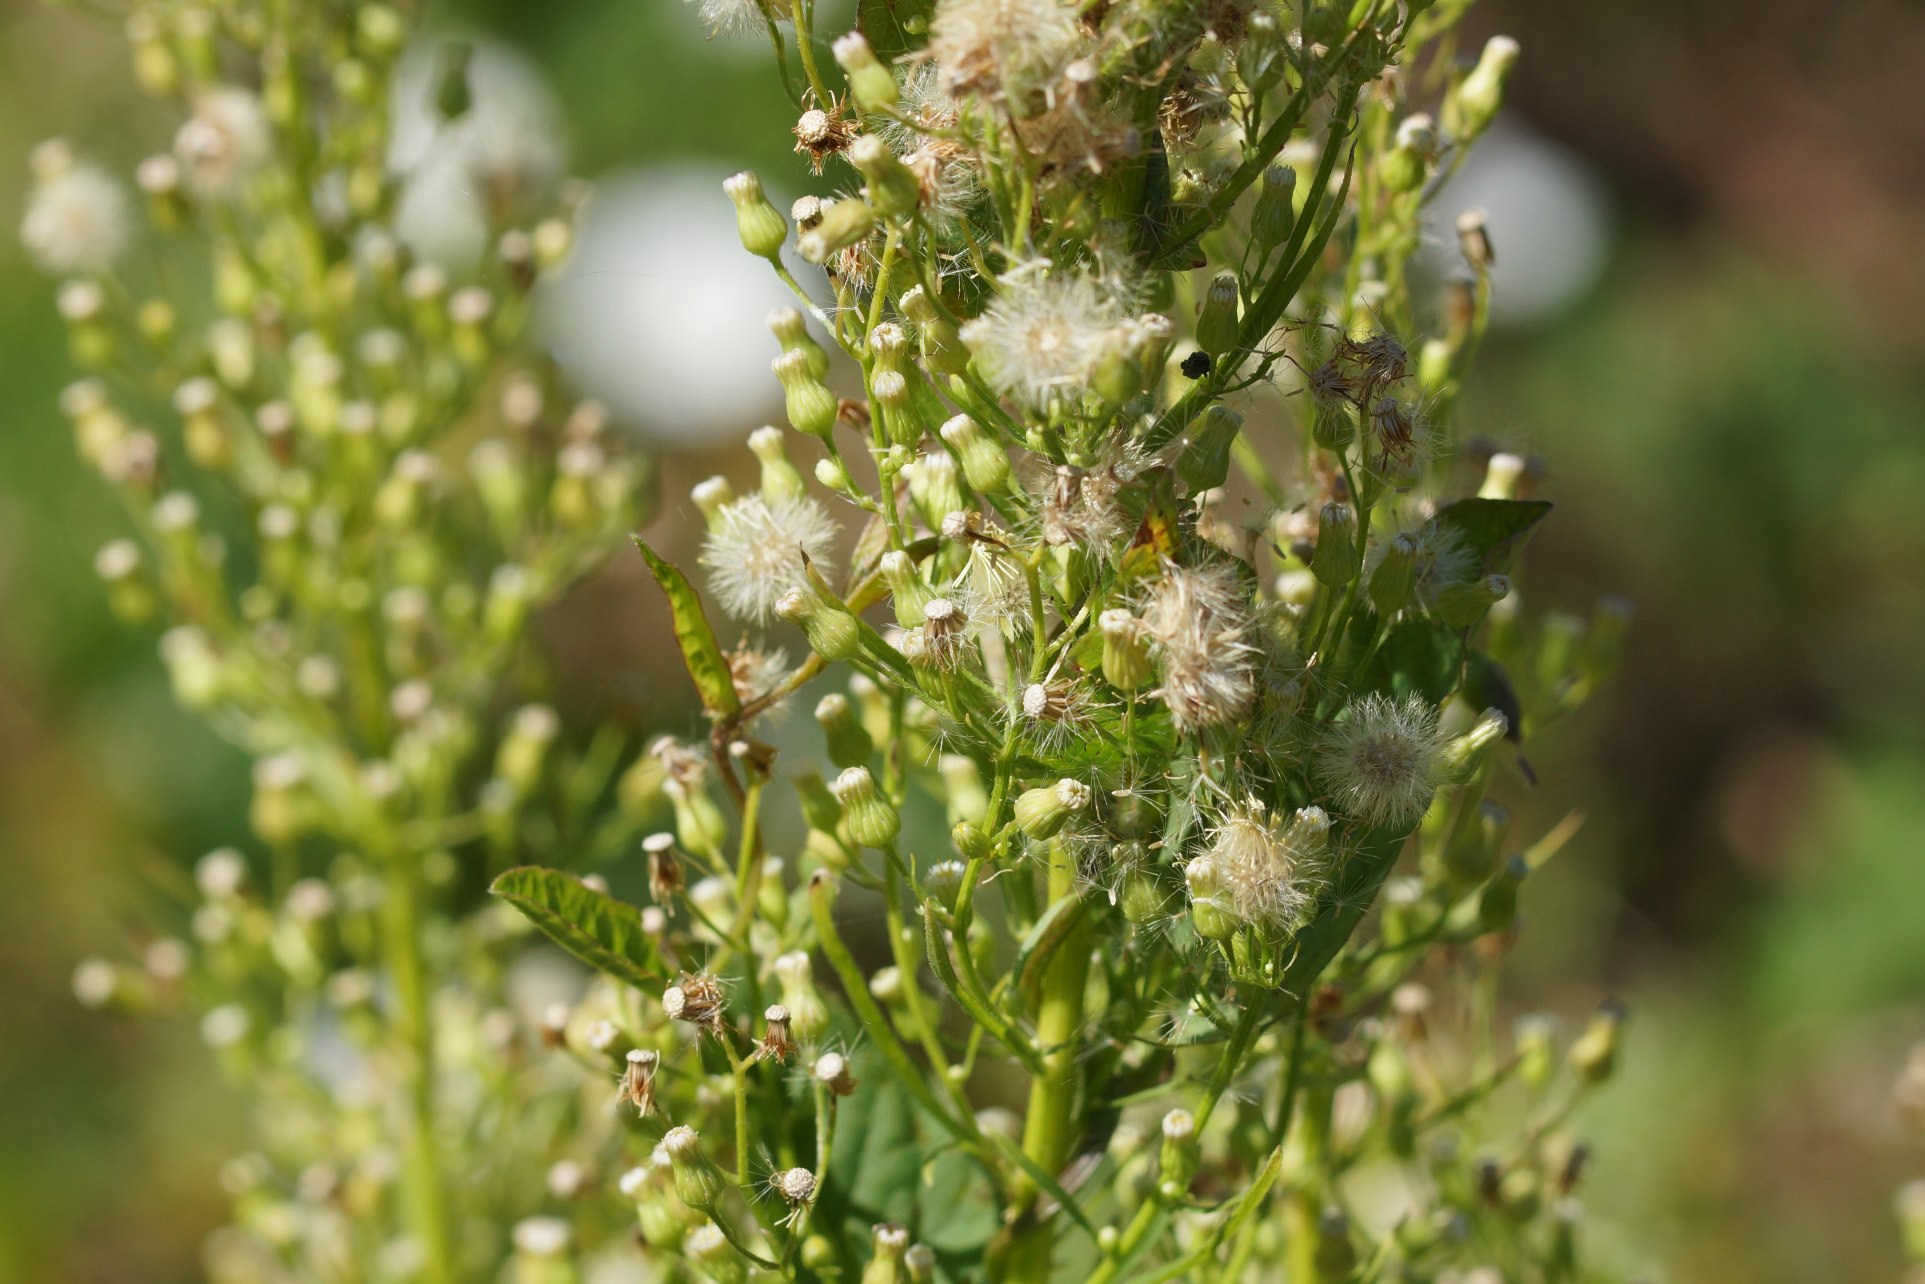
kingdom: Plantae
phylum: Tracheophyta
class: Magnoliopsida
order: Asterales
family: Asteraceae
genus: Erigeron
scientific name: Erigeron canadensis
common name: Kanadisk bakkestjerne
